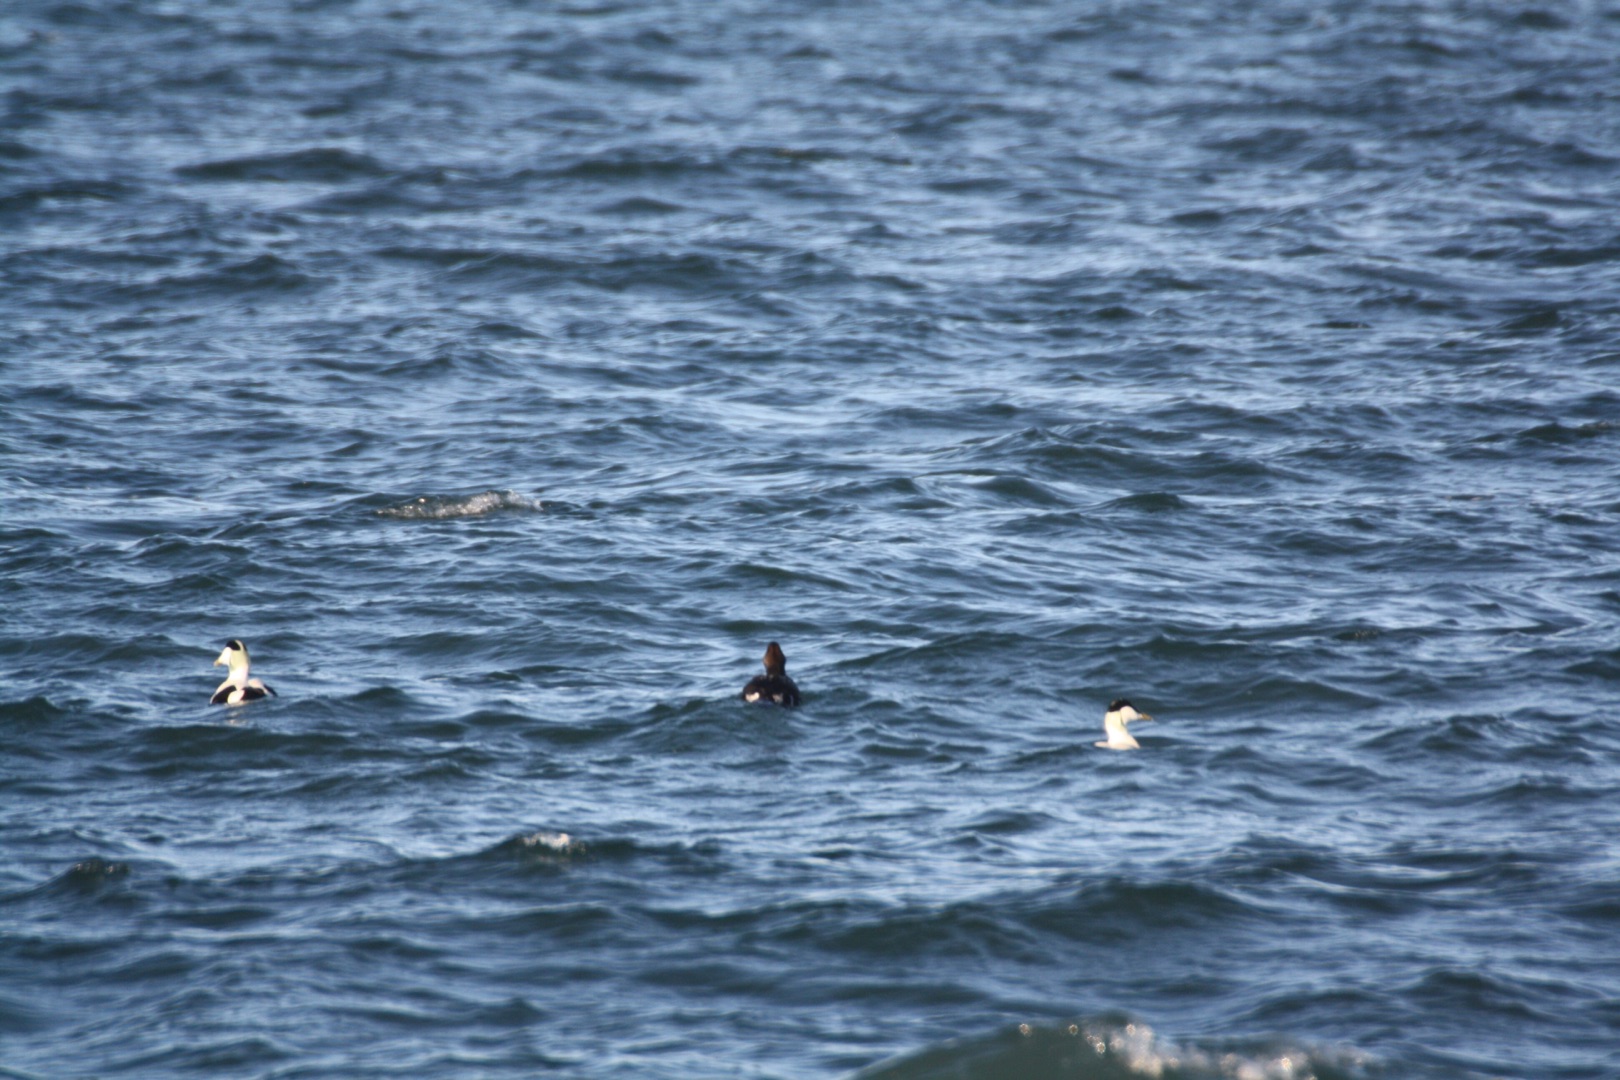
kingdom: Animalia
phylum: Chordata
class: Aves
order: Anseriformes
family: Anatidae
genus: Somateria
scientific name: Somateria mollissima
